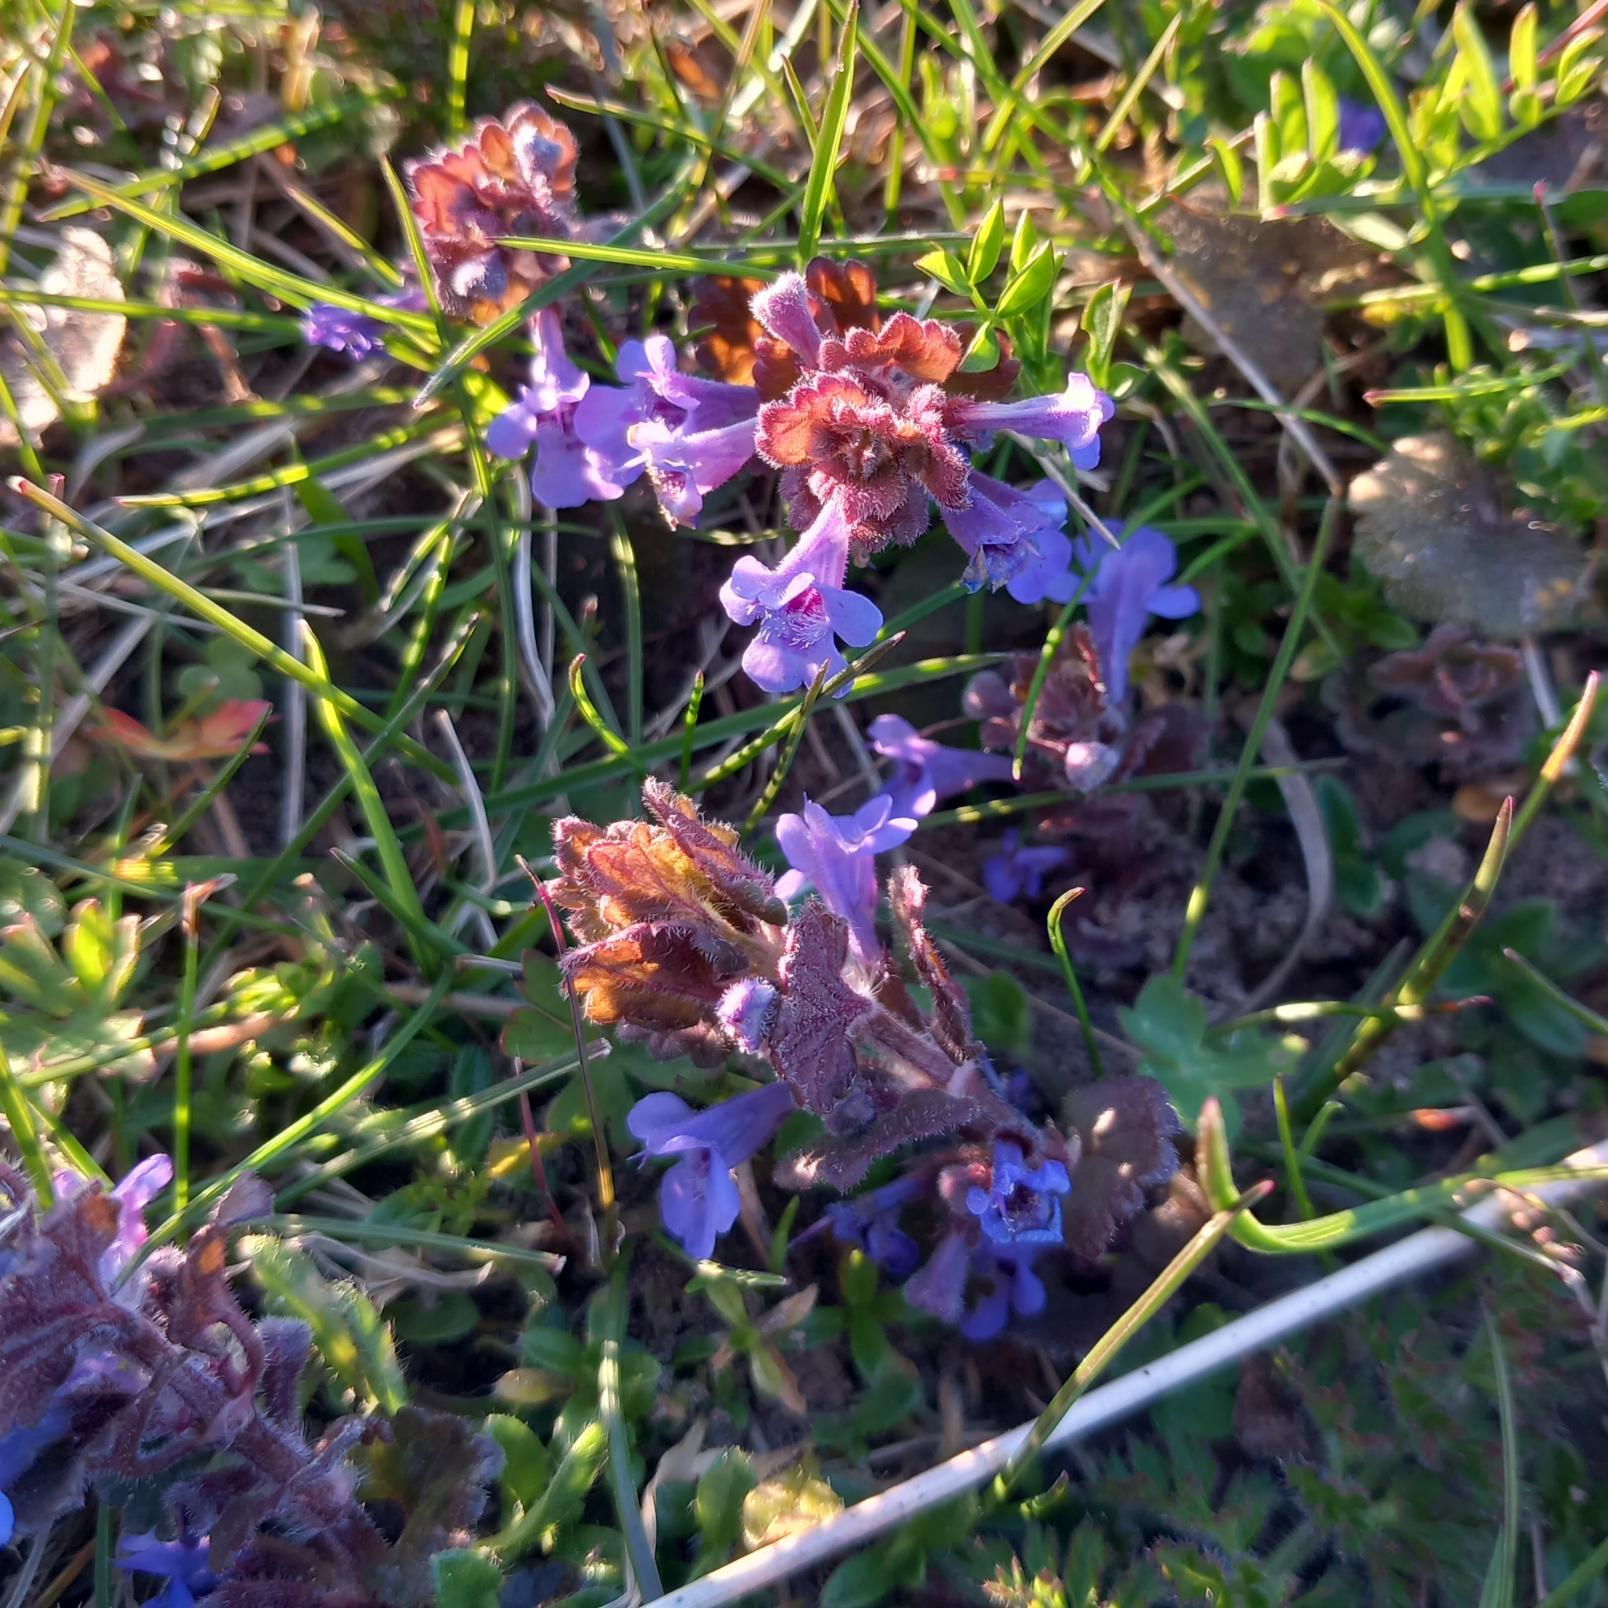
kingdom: Plantae
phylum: Tracheophyta
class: Magnoliopsida
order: Lamiales
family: Lamiaceae
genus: Glechoma
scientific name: Glechoma hederacea
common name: Korsknap
